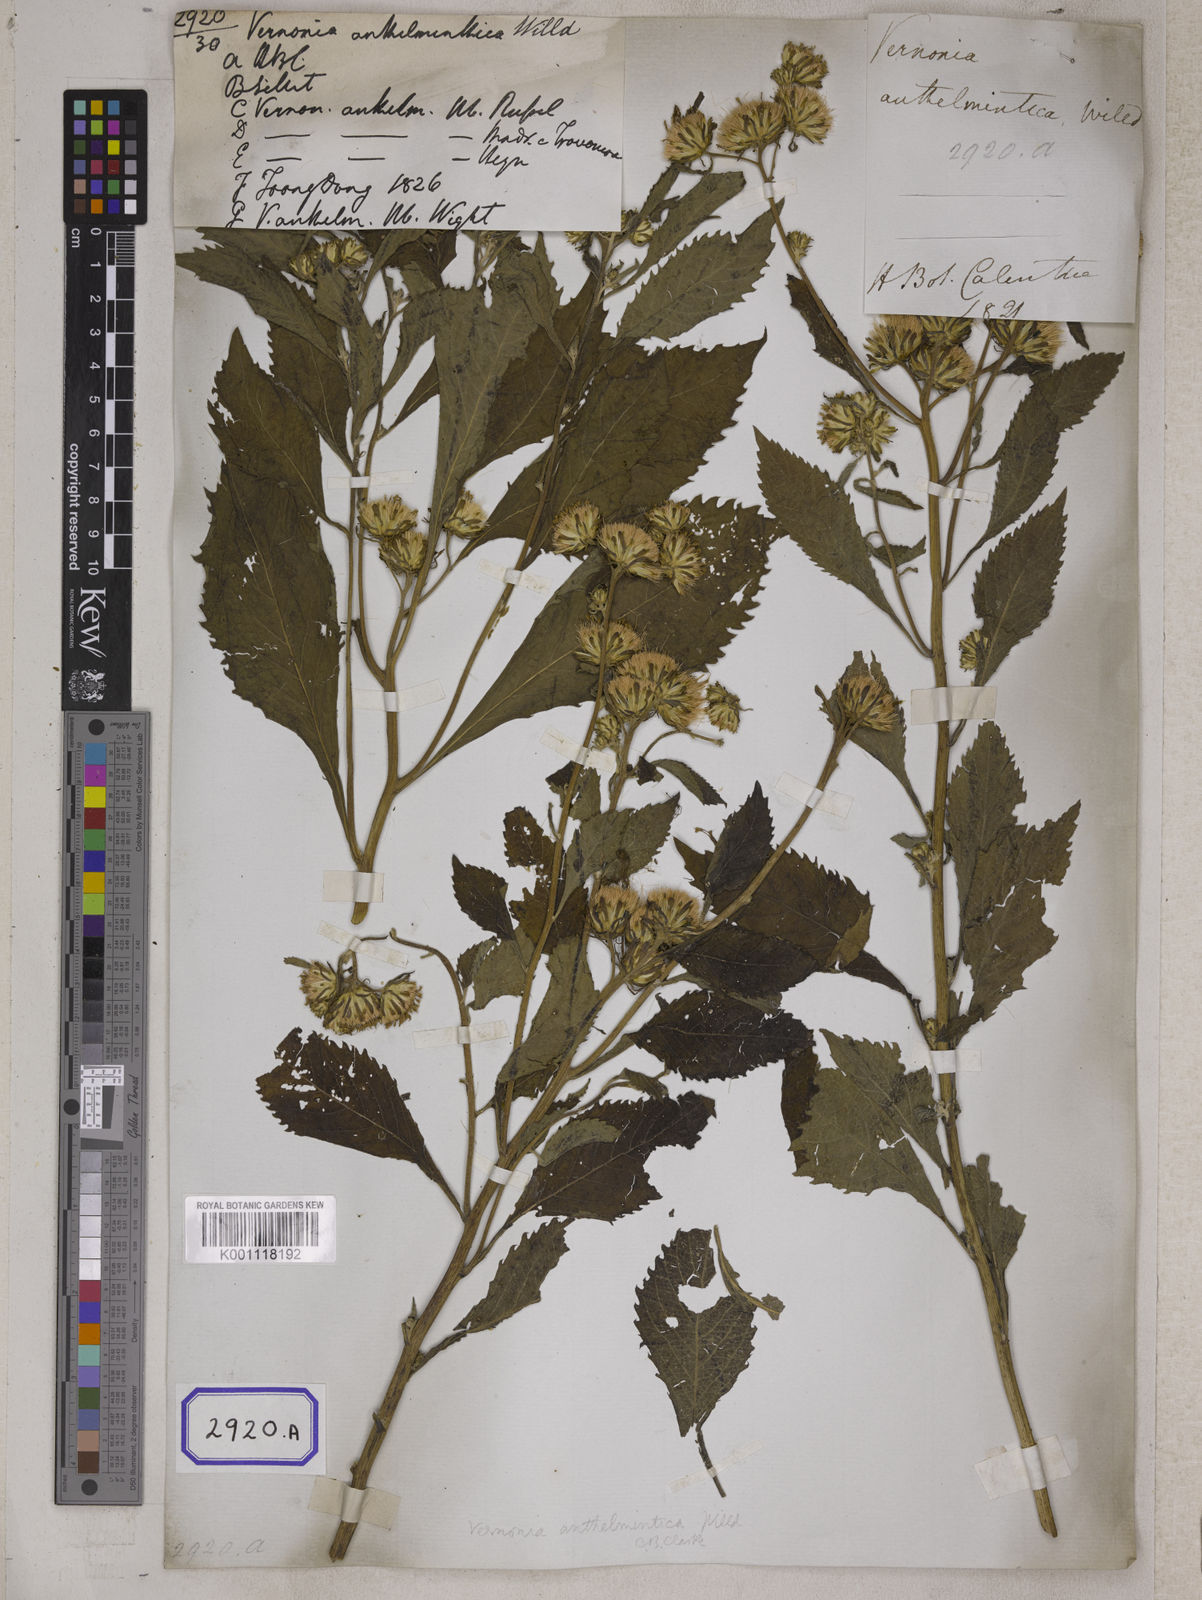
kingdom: Plantae
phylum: Tracheophyta
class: Magnoliopsida
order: Asterales
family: Asteraceae
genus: Baccharoides
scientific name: Baccharoides anthelmintica
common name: Kinka-oil
